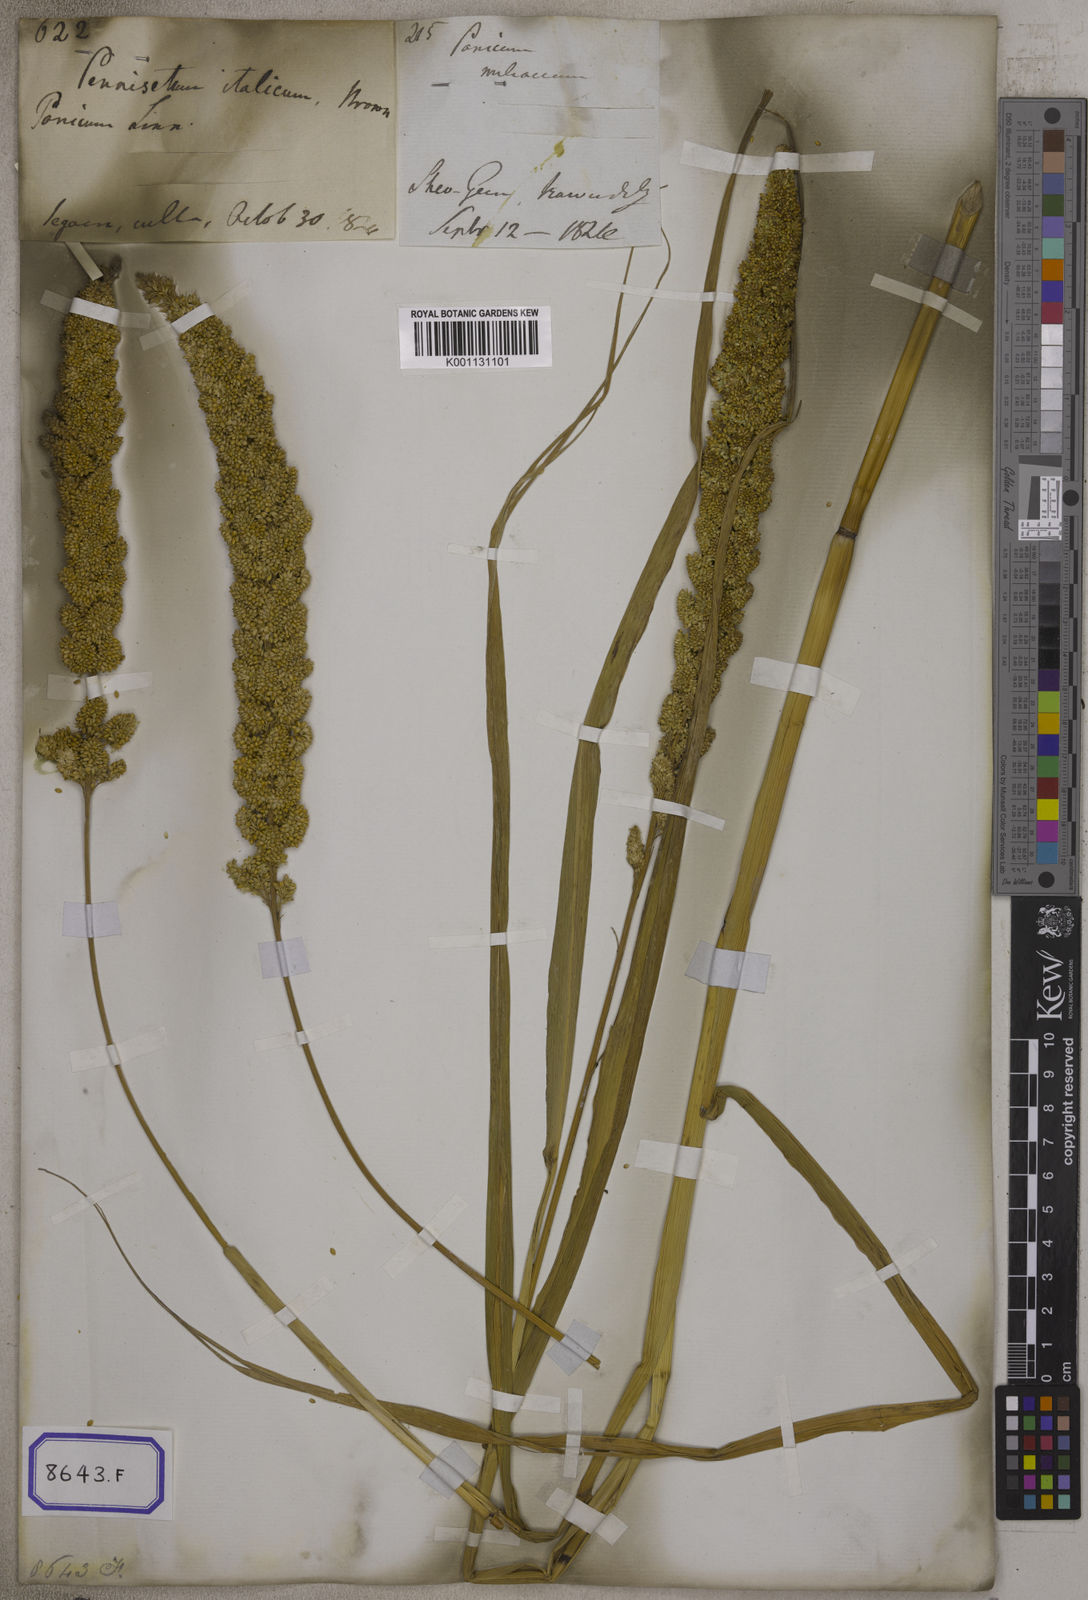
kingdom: Plantae
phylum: Tracheophyta
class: Liliopsida
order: Poales
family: Poaceae
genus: Setaria
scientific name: Setaria italica
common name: Foxtail bristle-grass
